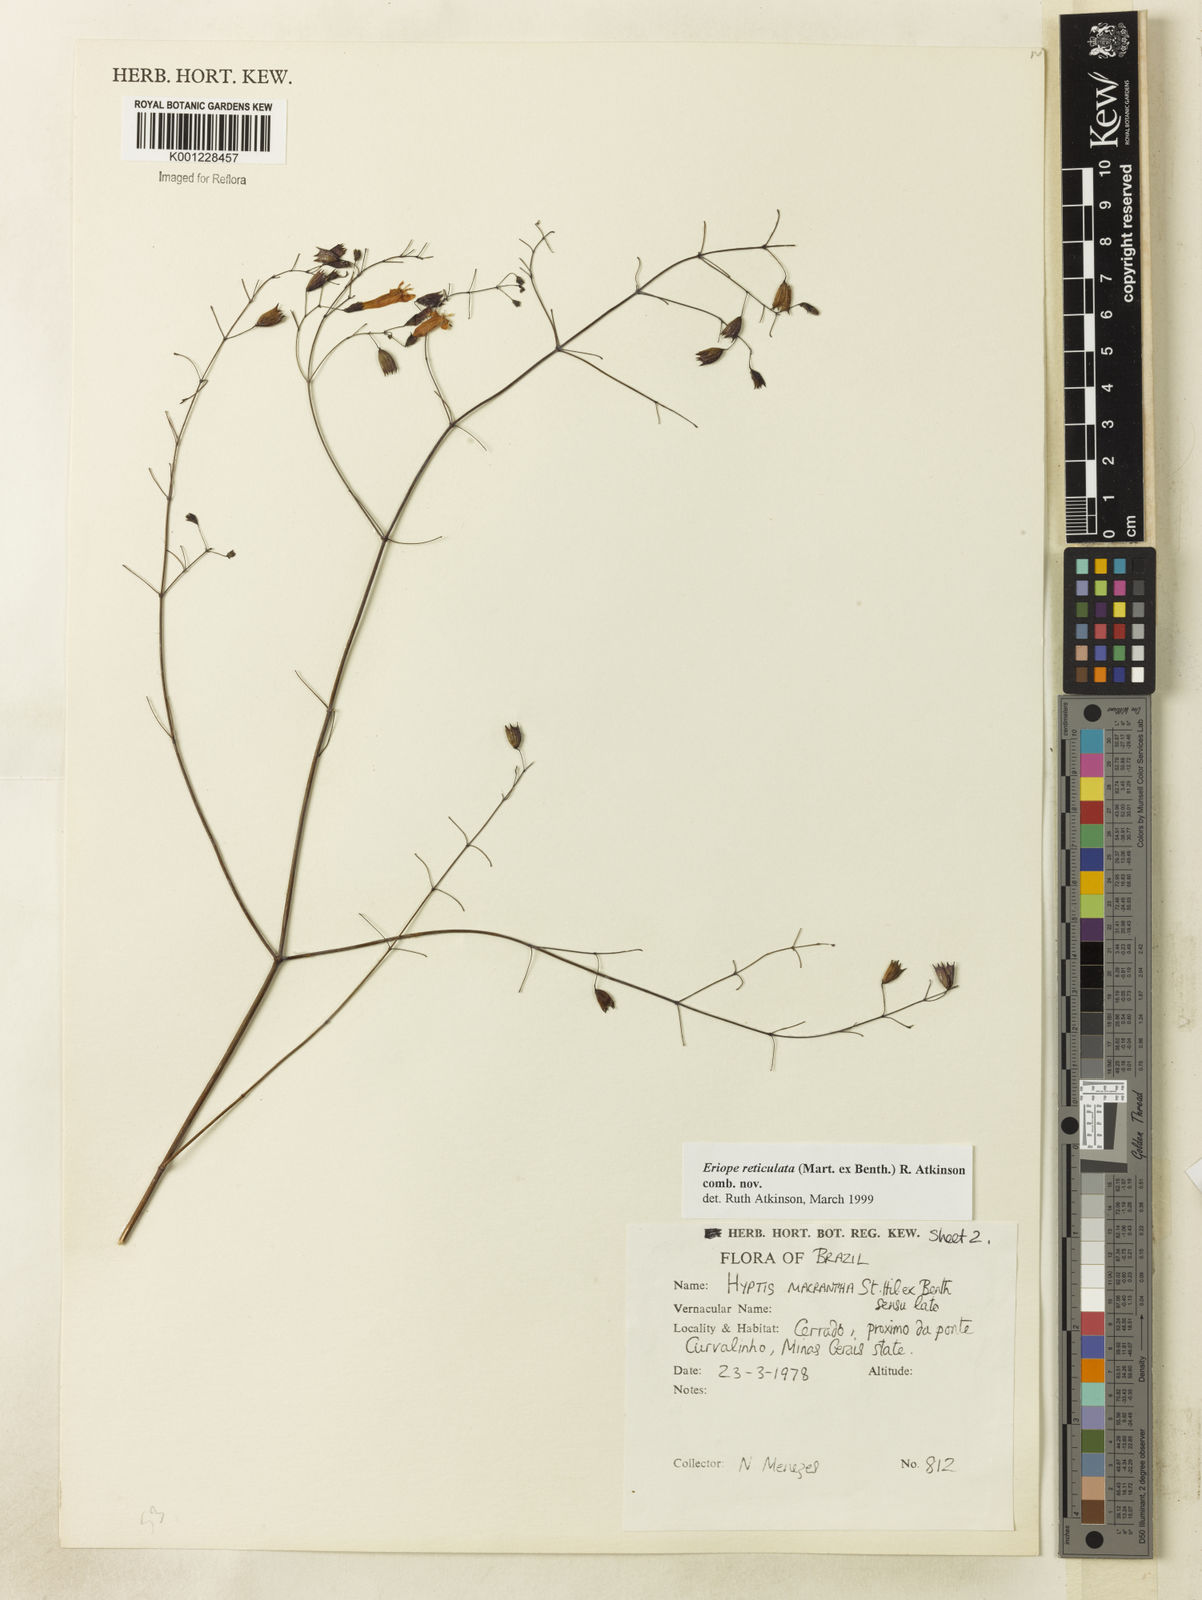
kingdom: Plantae
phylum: Tracheophyta
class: Magnoliopsida
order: Lamiales
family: Lamiaceae
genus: Hypenia
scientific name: Hypenia reticulata
